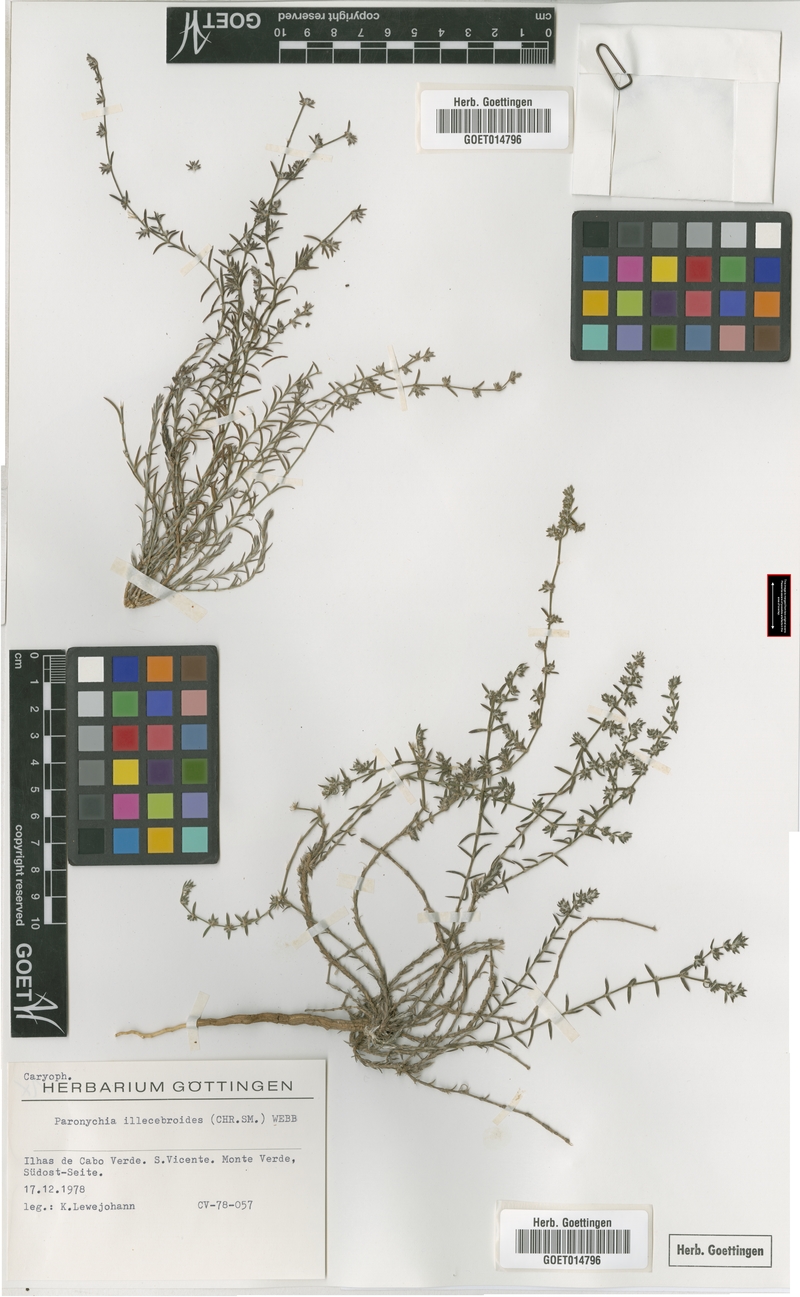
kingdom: Plantae
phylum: Tracheophyta
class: Magnoliopsida
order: Caryophyllales
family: Caryophyllaceae
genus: Paronychia
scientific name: Paronychia illecebroides
